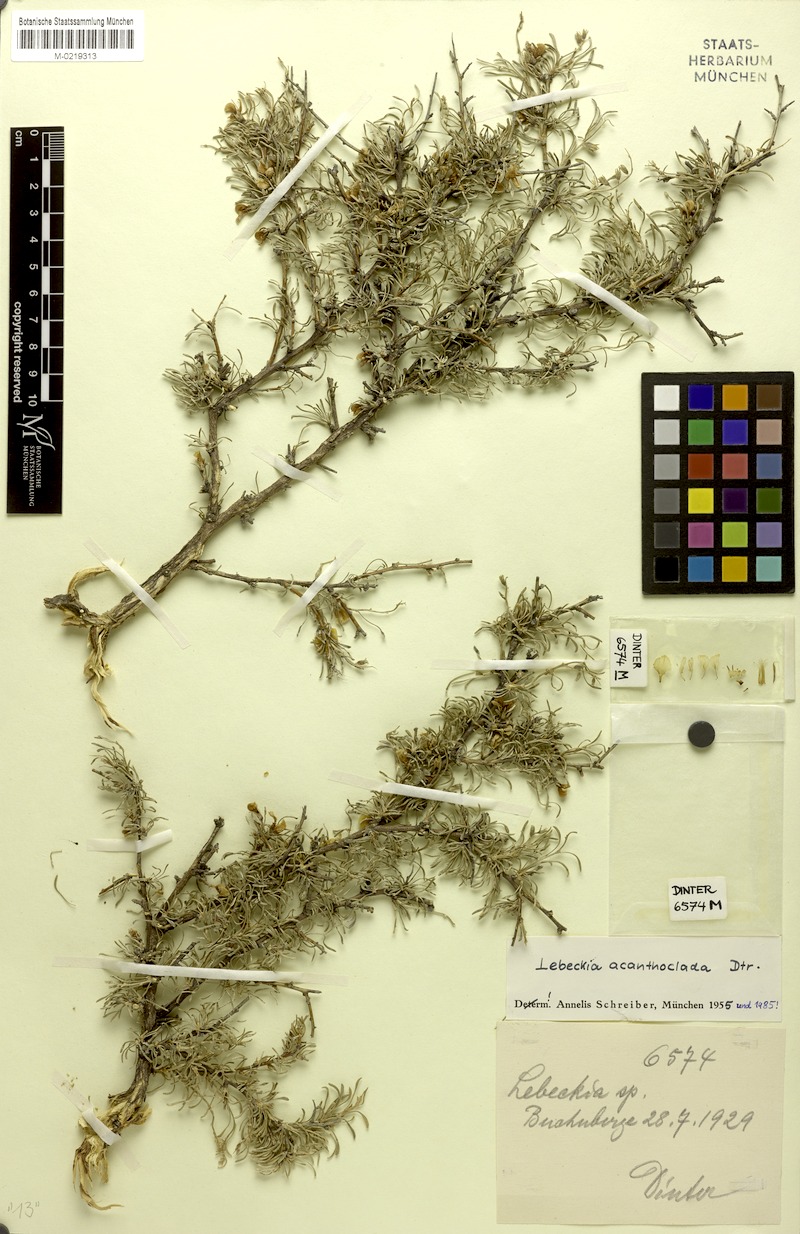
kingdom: Plantae
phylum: Tracheophyta
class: Magnoliopsida
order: Fabales
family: Fabaceae
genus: Calobota
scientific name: Calobota acanthoclada
